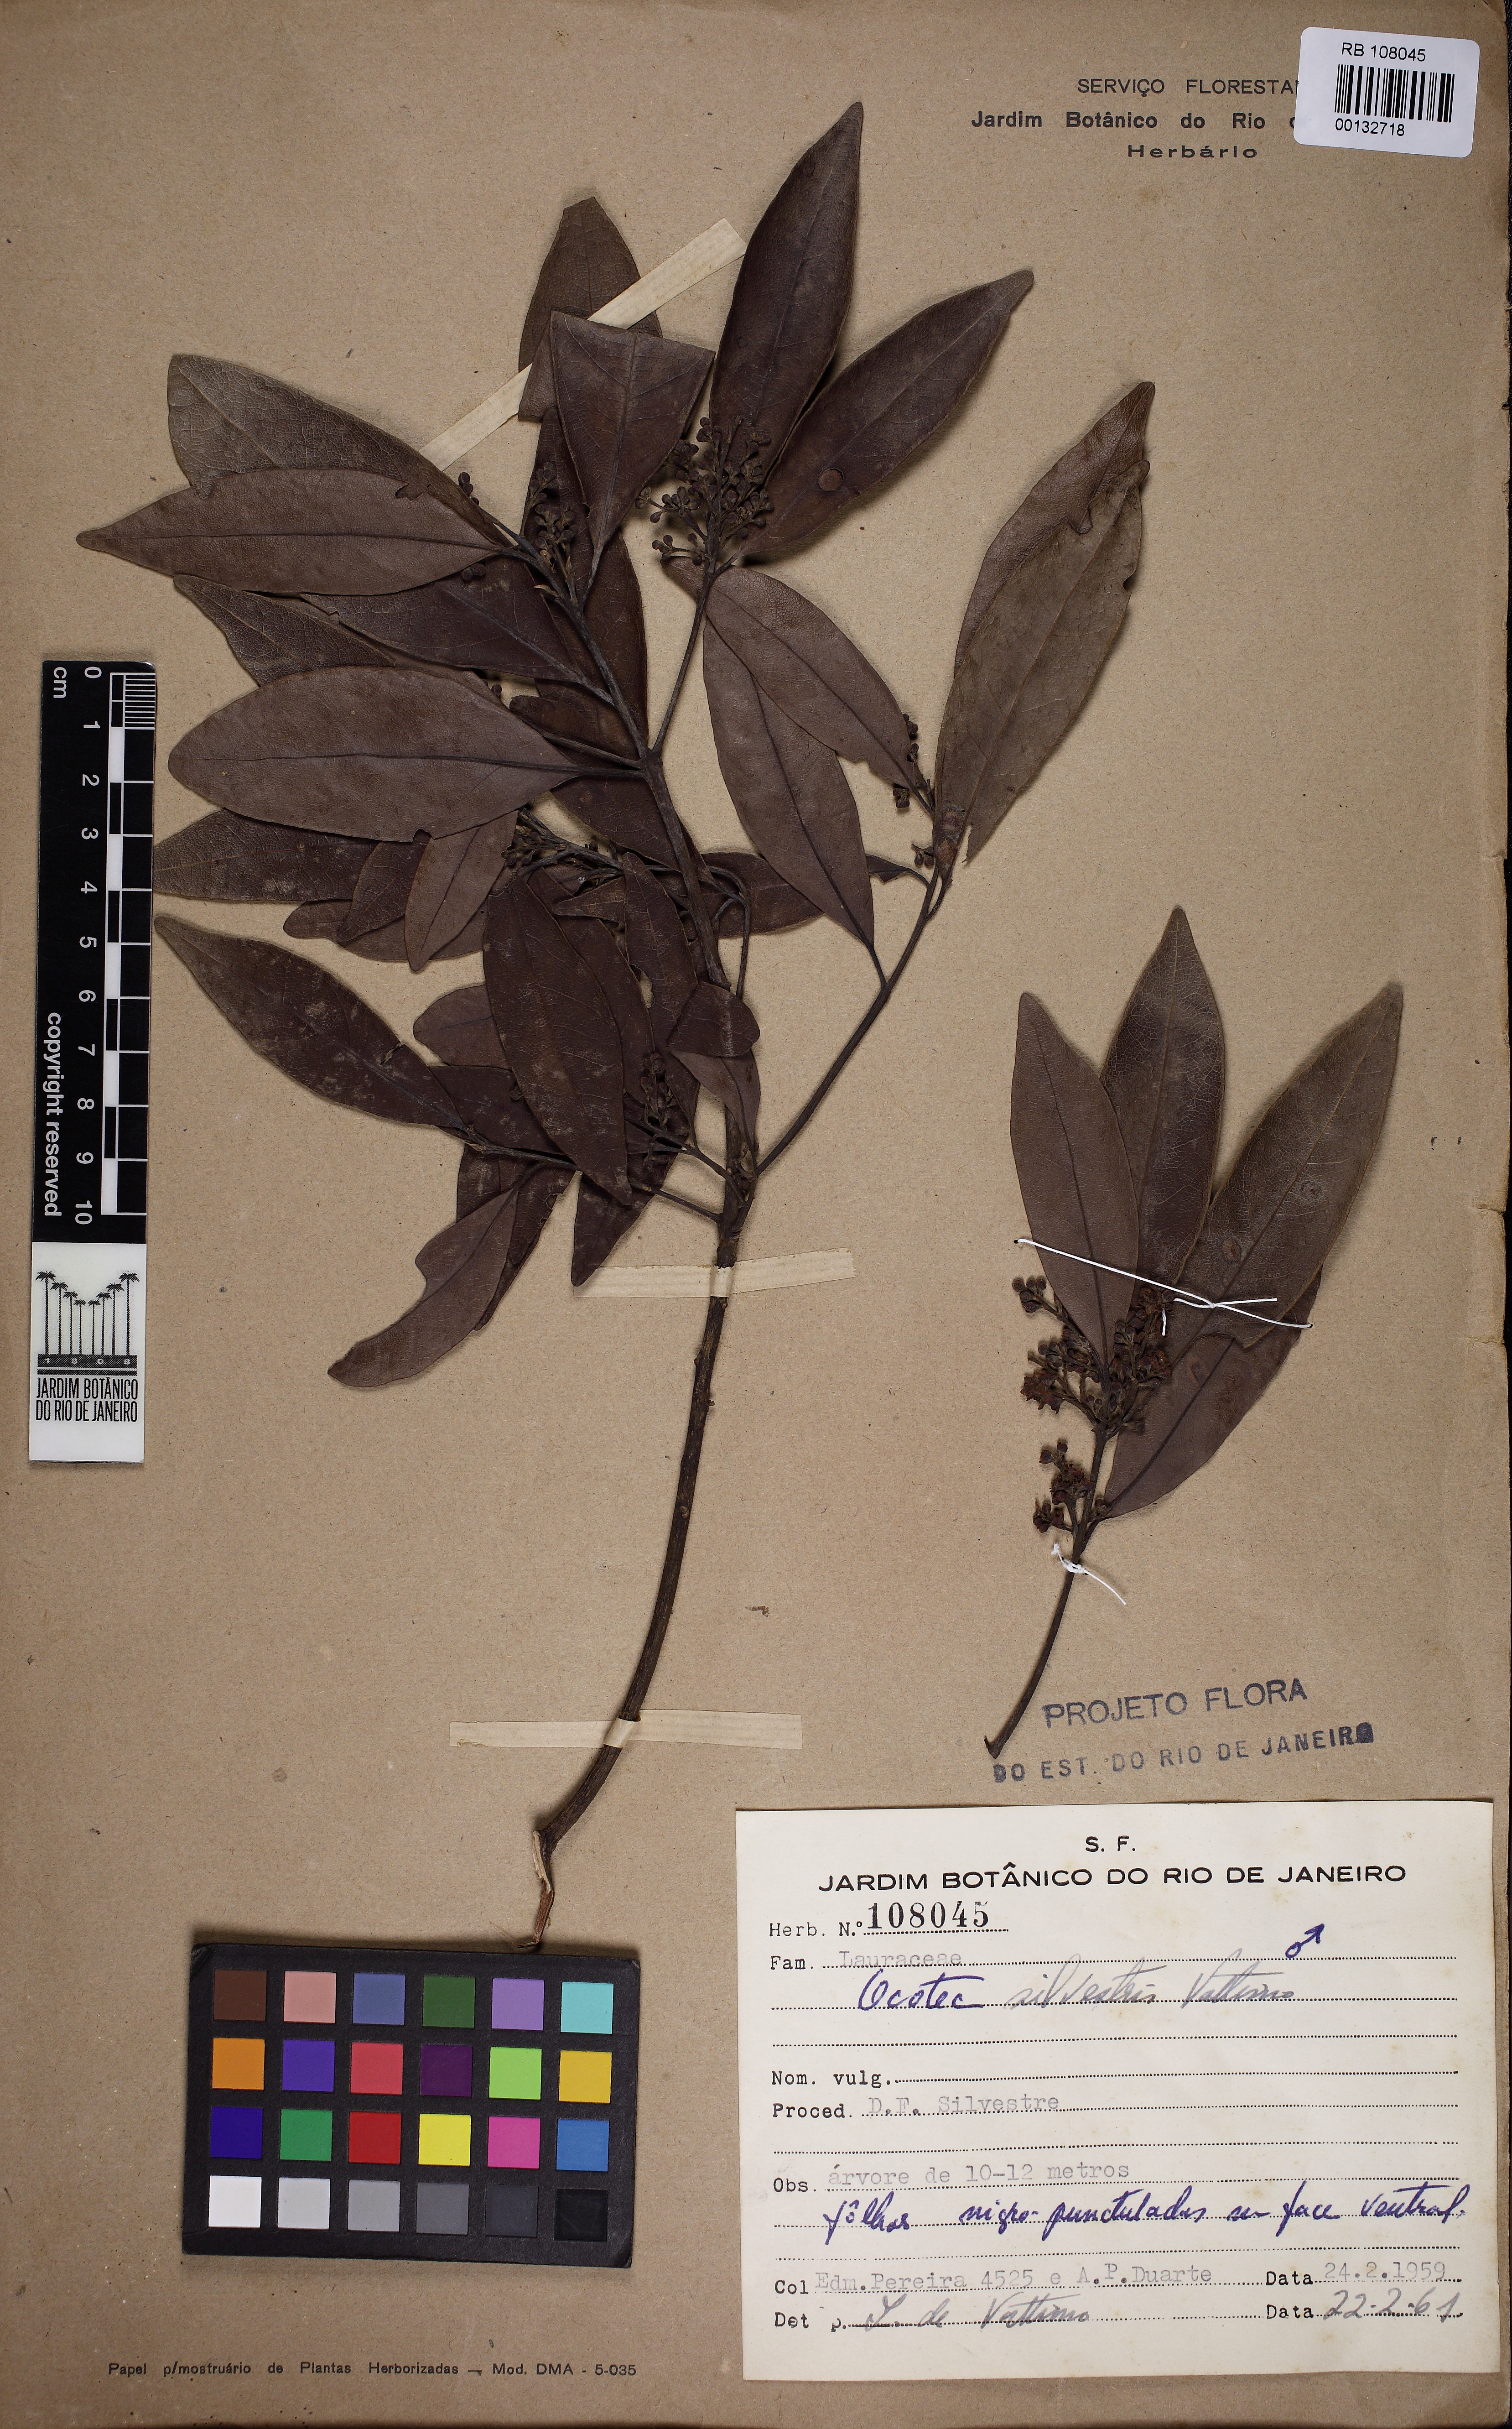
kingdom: Plantae
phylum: Tracheophyta
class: Magnoliopsida
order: Laurales
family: Lauraceae
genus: Ocotea
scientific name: Ocotea silvestris
